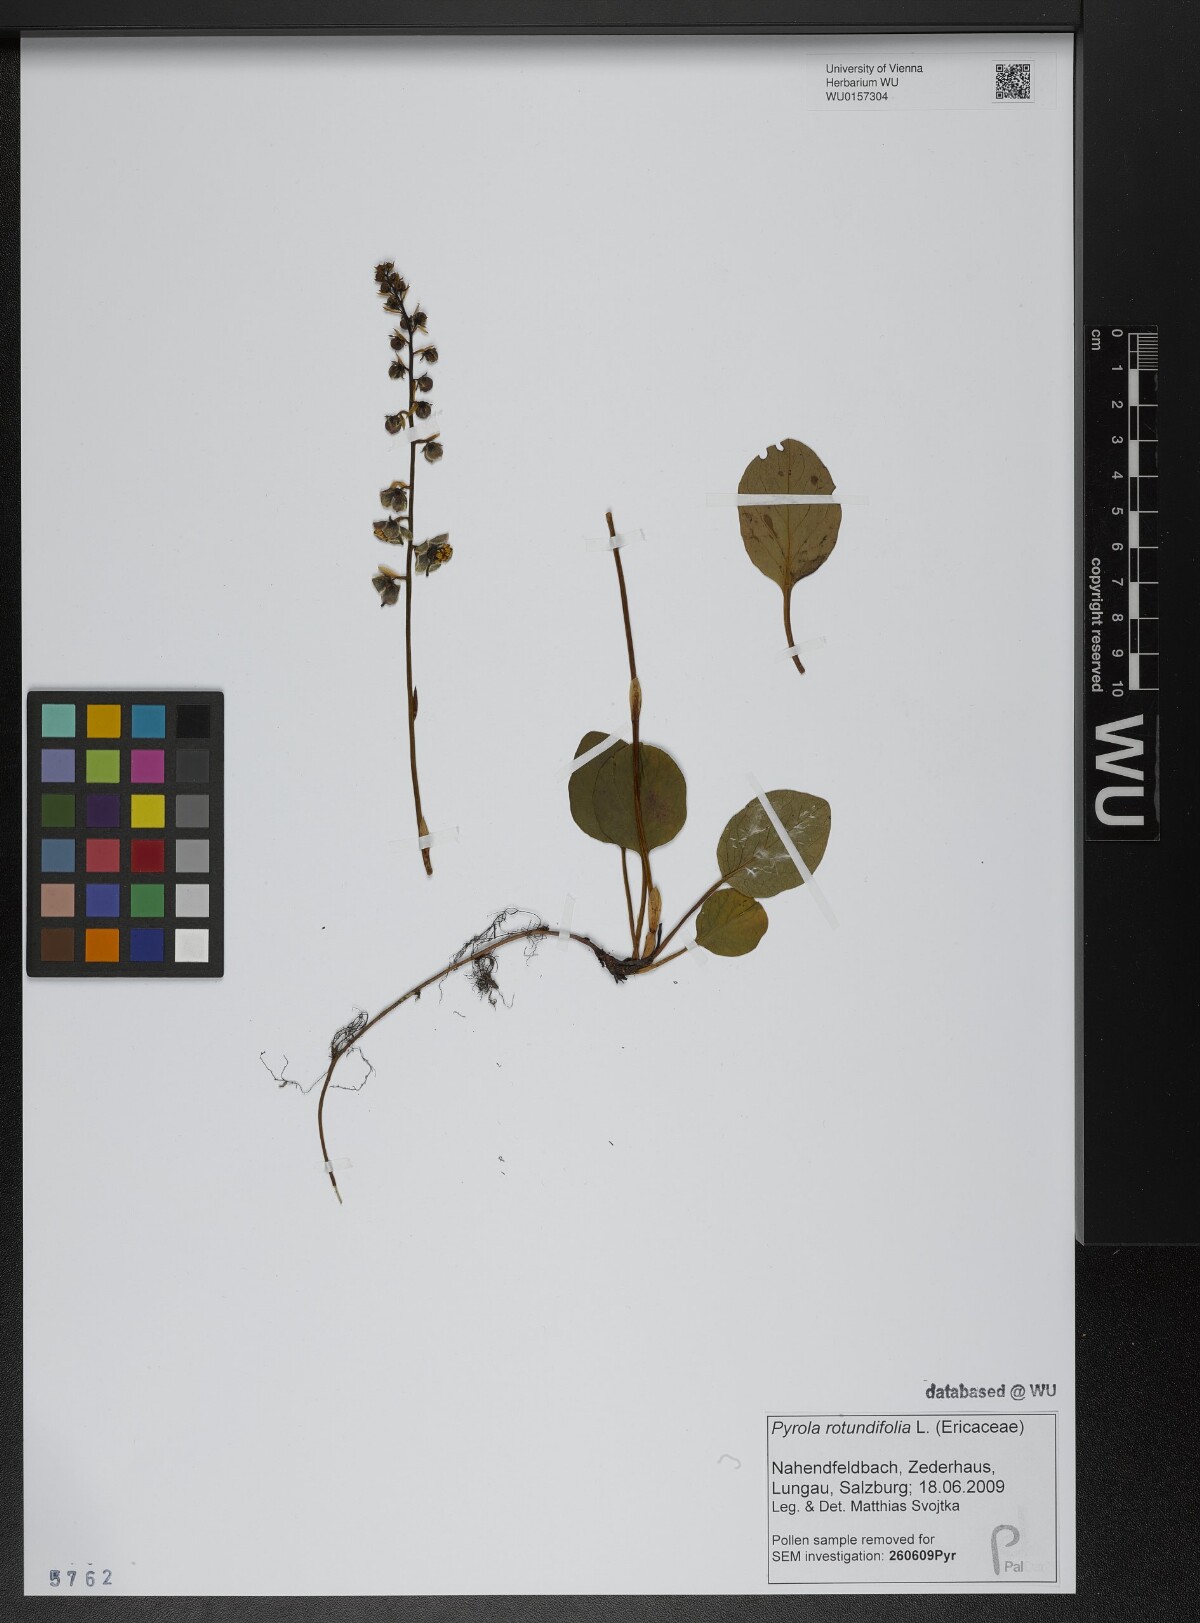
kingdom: Plantae
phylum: Tracheophyta
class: Magnoliopsida
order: Ericales
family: Ericaceae
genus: Pyrola
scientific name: Pyrola rotundifolia
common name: Round-leaved wintergreen
